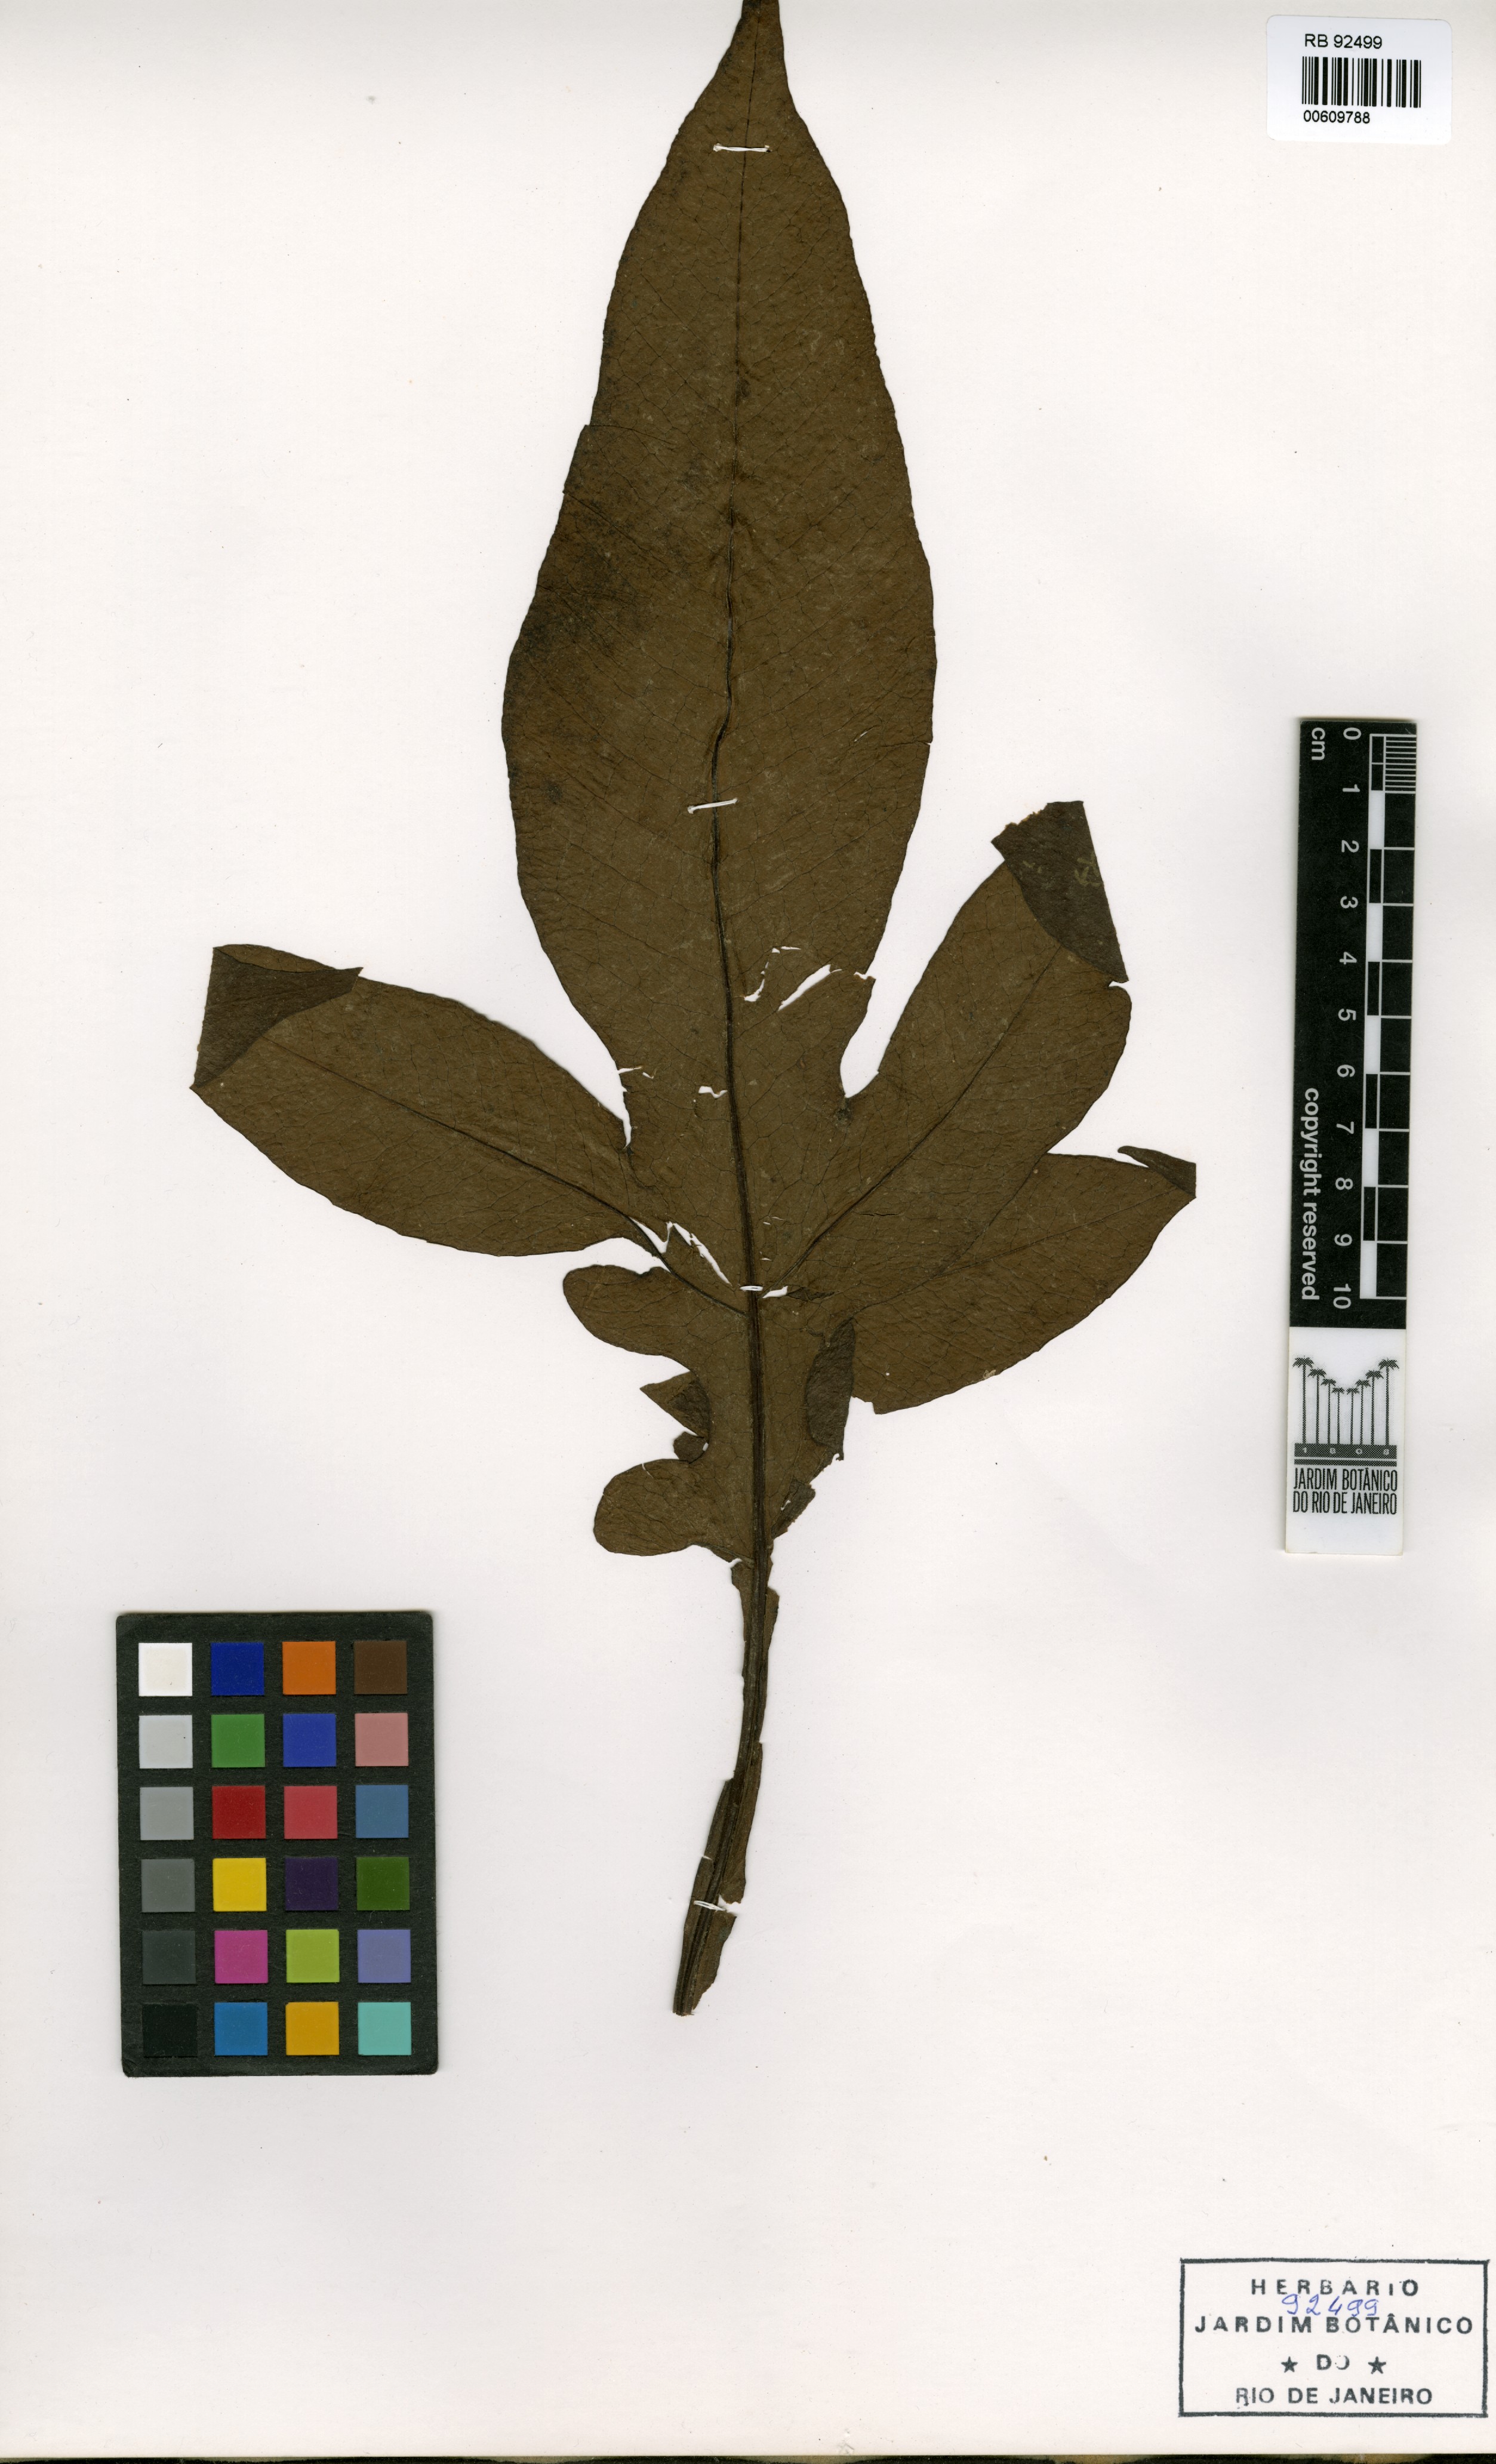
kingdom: Plantae
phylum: Tracheophyta
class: Polypodiopsida
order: Polypodiales
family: Tectariaceae
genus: Tectaria
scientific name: Tectaria vasta
